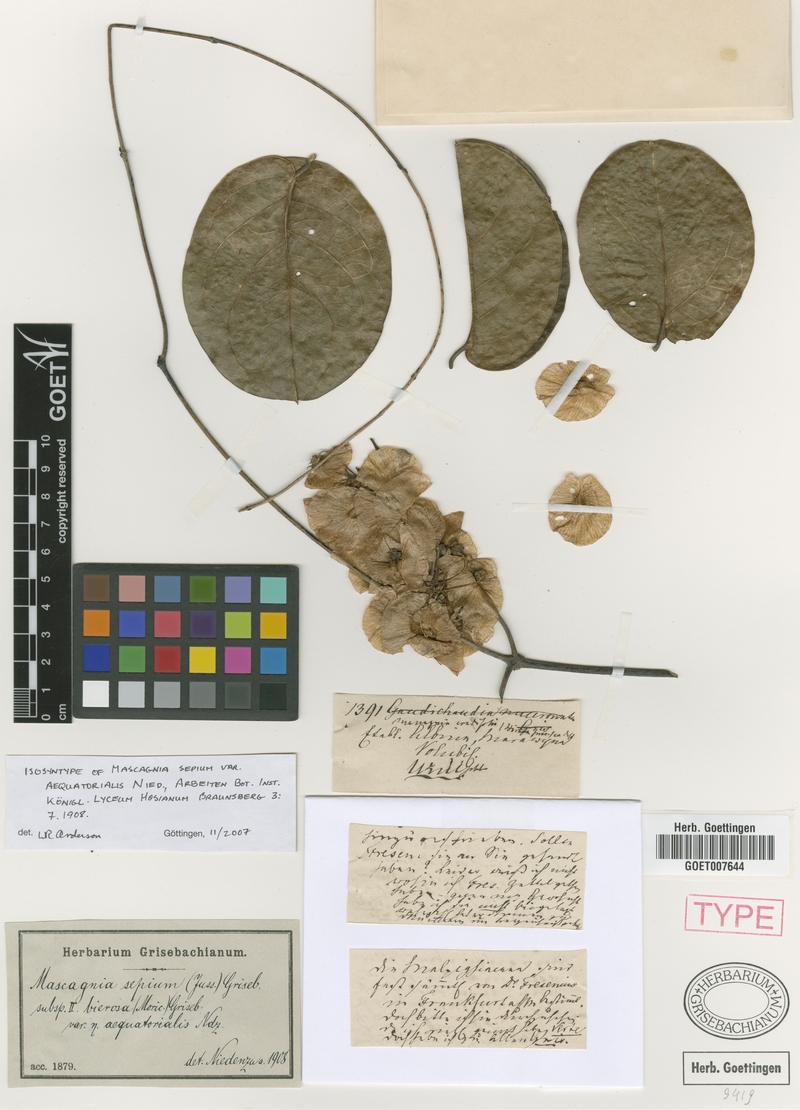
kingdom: Plantae
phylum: Tracheophyta
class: Magnoliopsida
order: Malpighiales
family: Malpighiaceae
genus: Mascagnia
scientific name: Mascagnia sepium
